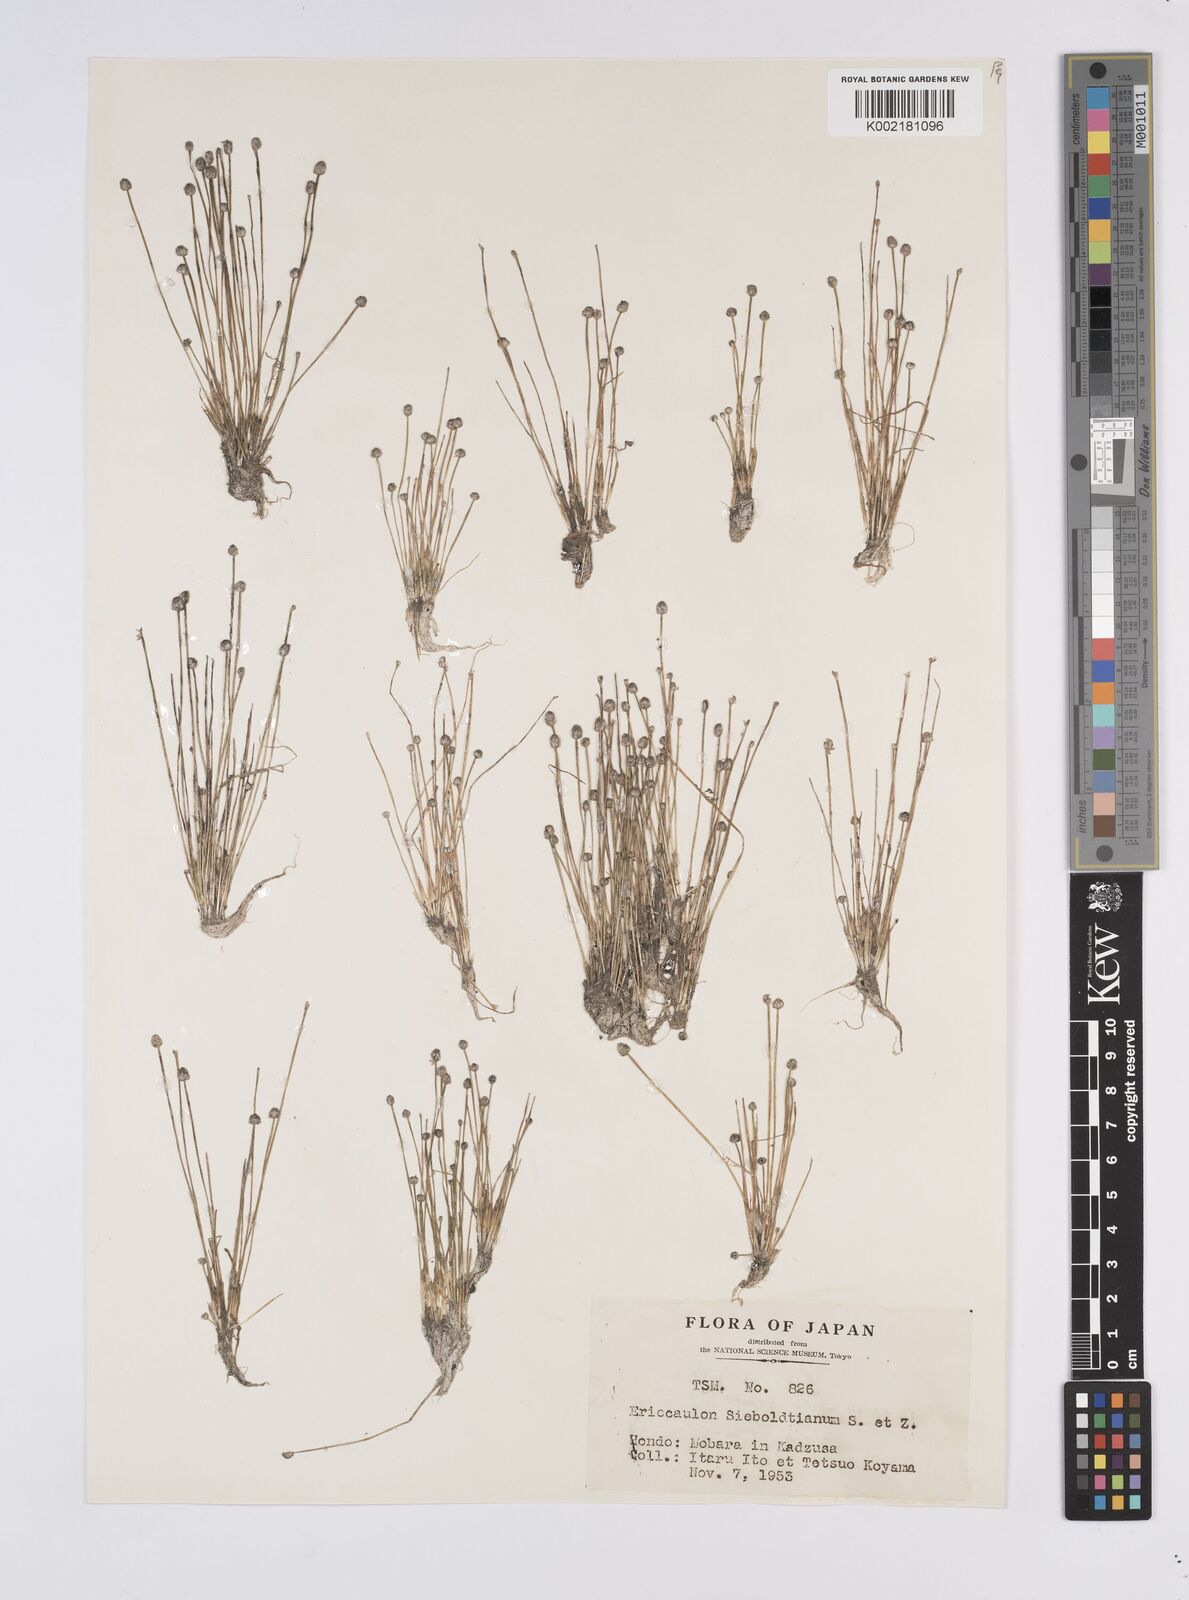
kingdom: Plantae
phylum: Tracheophyta
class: Liliopsida
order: Poales
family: Eriocaulaceae
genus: Eriocaulon
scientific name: Eriocaulon cinereum
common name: Ashy pipewort
